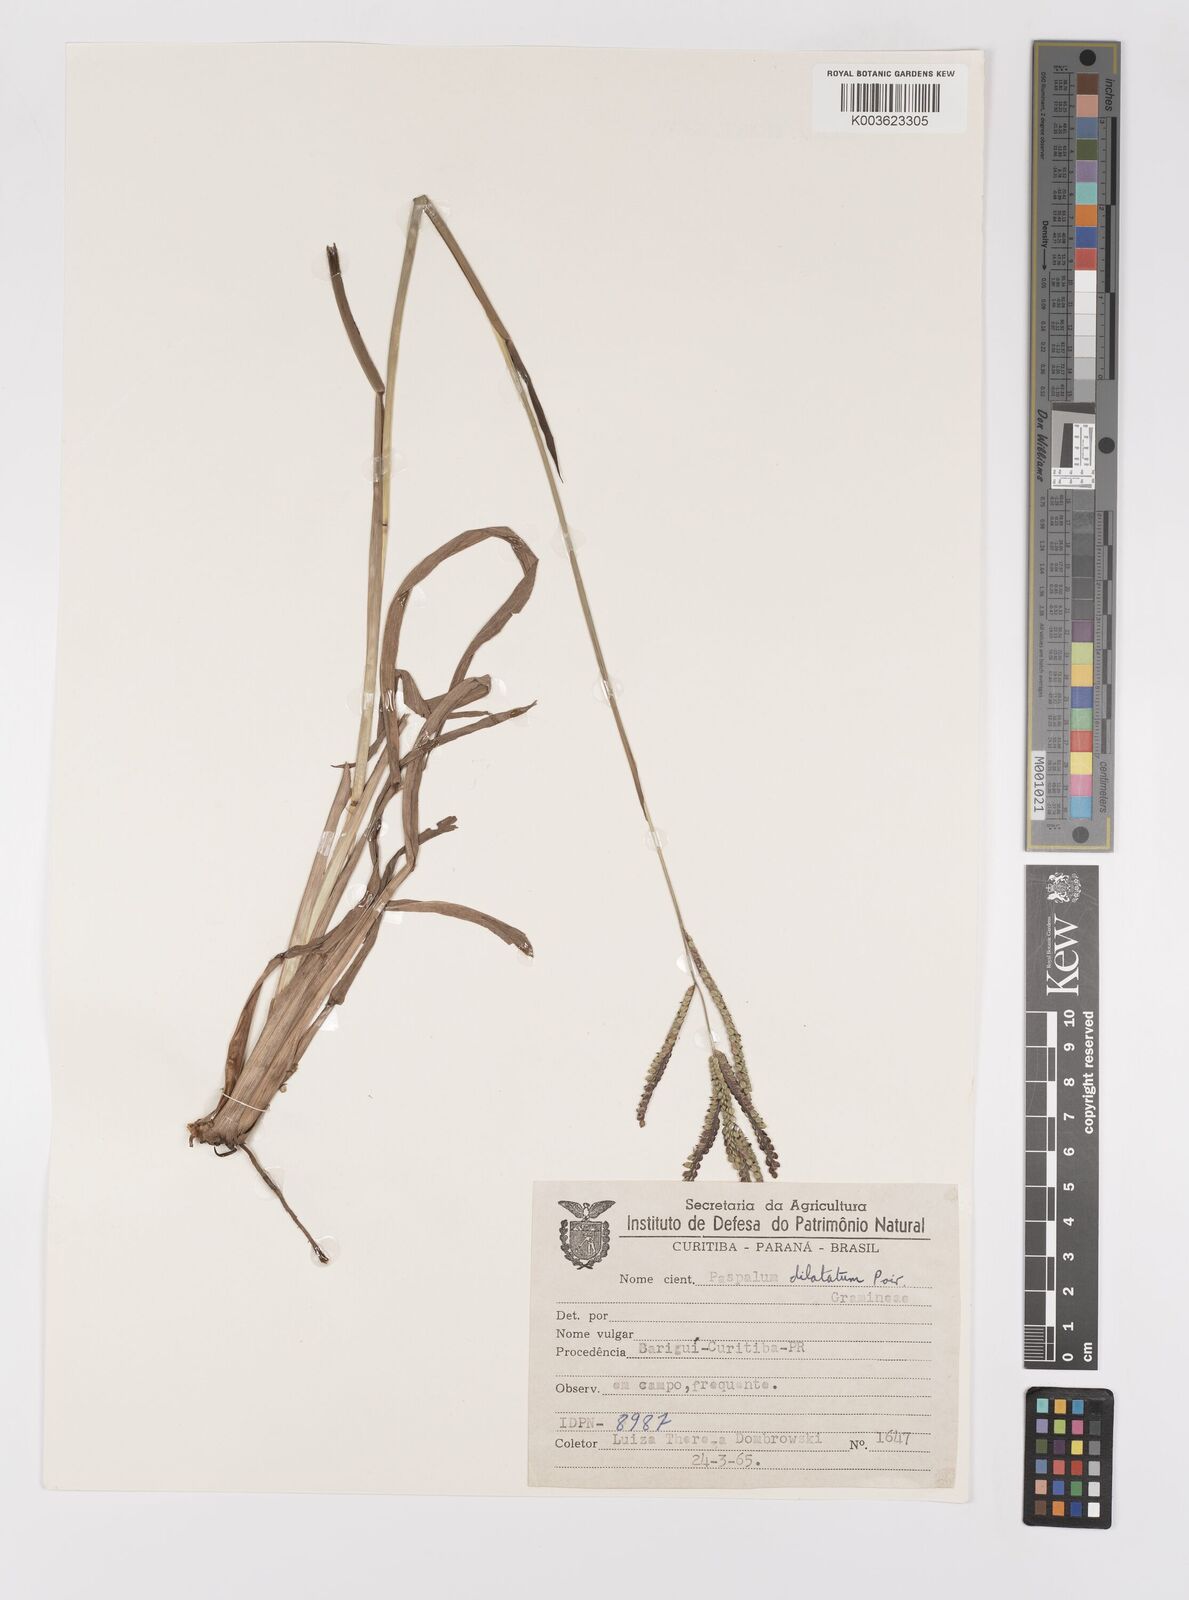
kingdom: Plantae
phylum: Tracheophyta
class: Liliopsida
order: Poales
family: Poaceae
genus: Paspalum
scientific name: Paspalum dilatatum
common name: Dallisgrass
